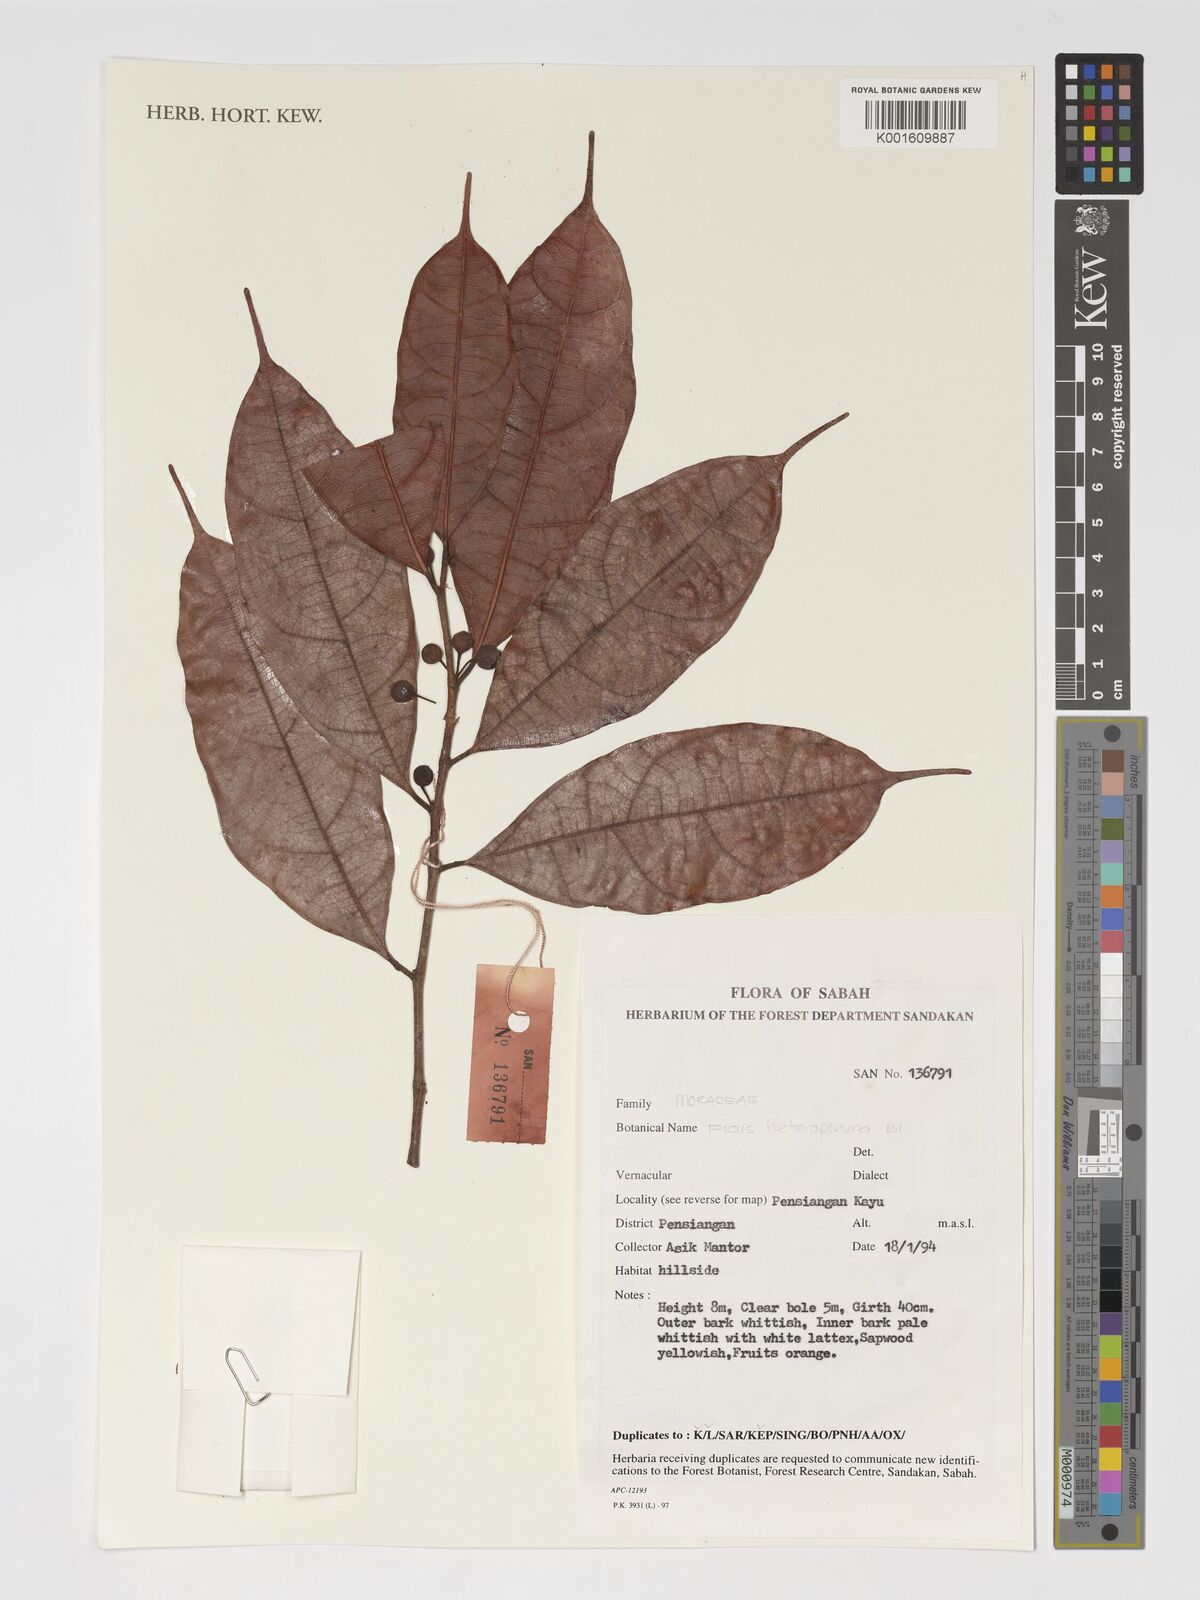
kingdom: Plantae
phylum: Tracheophyta
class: Magnoliopsida
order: Rosales
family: Moraceae
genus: Ficus
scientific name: Ficus heteropleura
